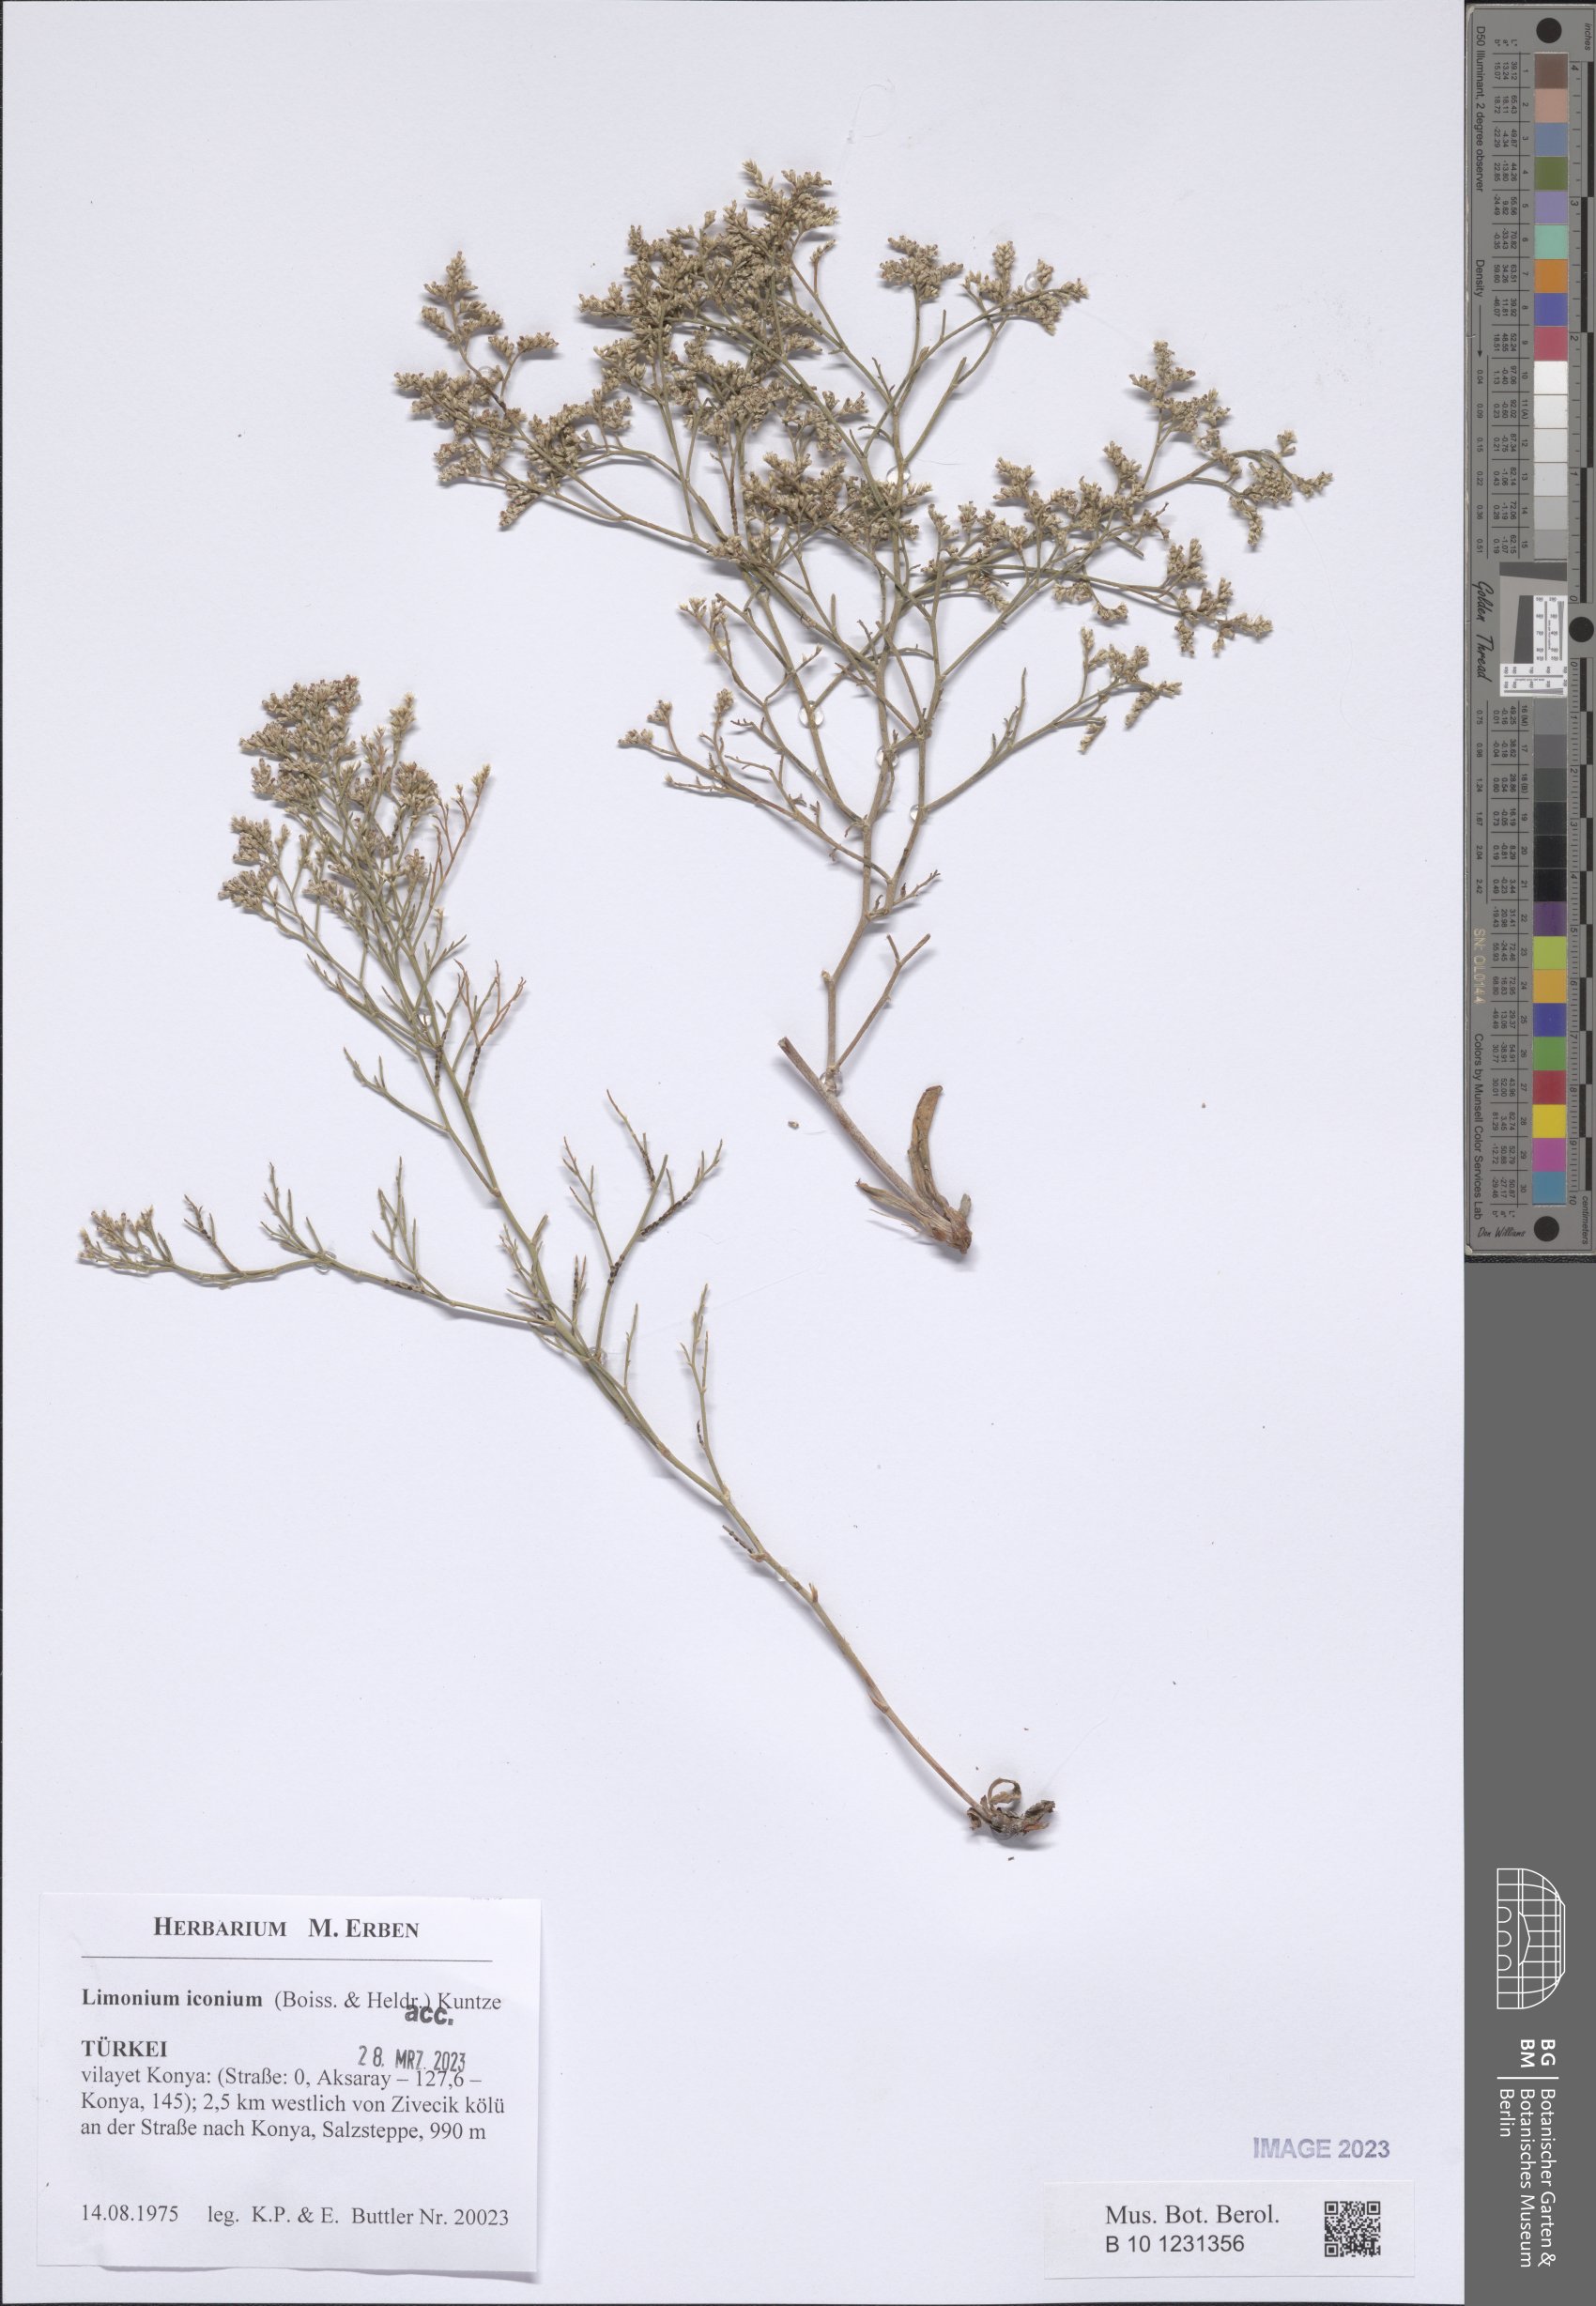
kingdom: Plantae
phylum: Tracheophyta
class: Magnoliopsida
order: Caryophyllales
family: Plumbaginaceae
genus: Limonium
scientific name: Limonium iconium
